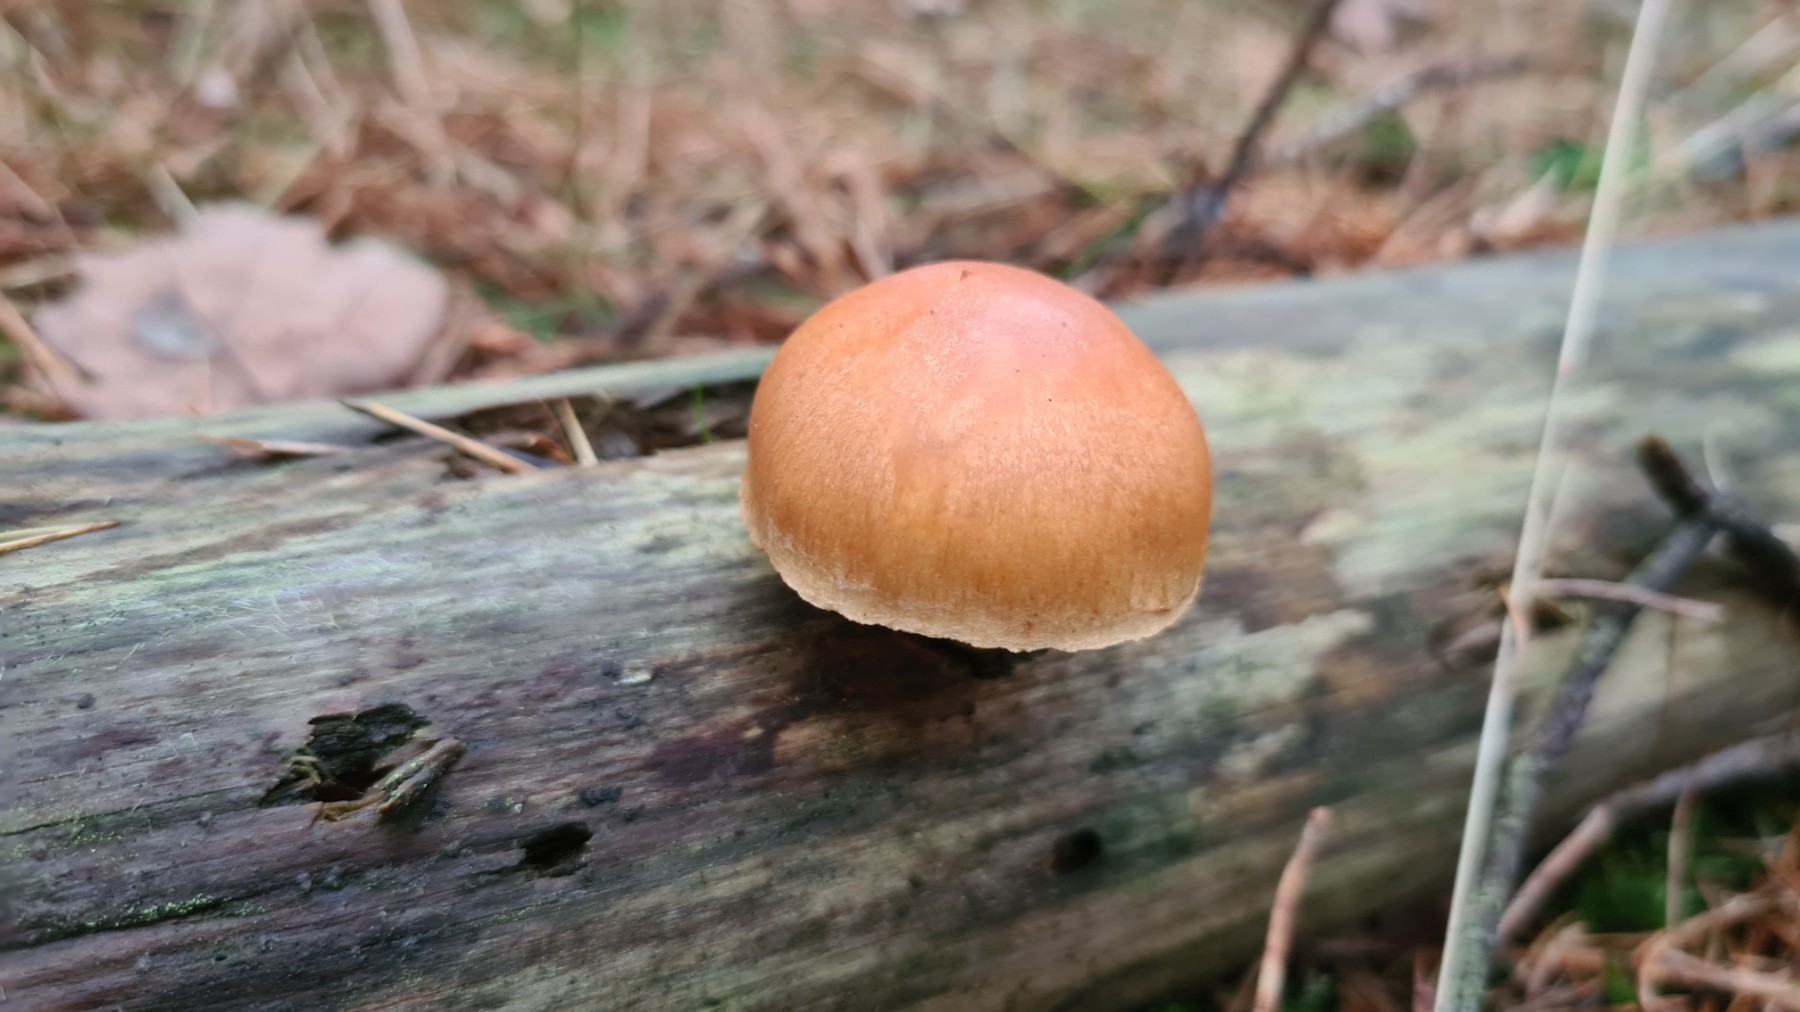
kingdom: Fungi
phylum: Basidiomycota
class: Agaricomycetes
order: Agaricales
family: Hymenogastraceae
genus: Gymnopilus
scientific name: Gymnopilus penetrans
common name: plettet flammehat
